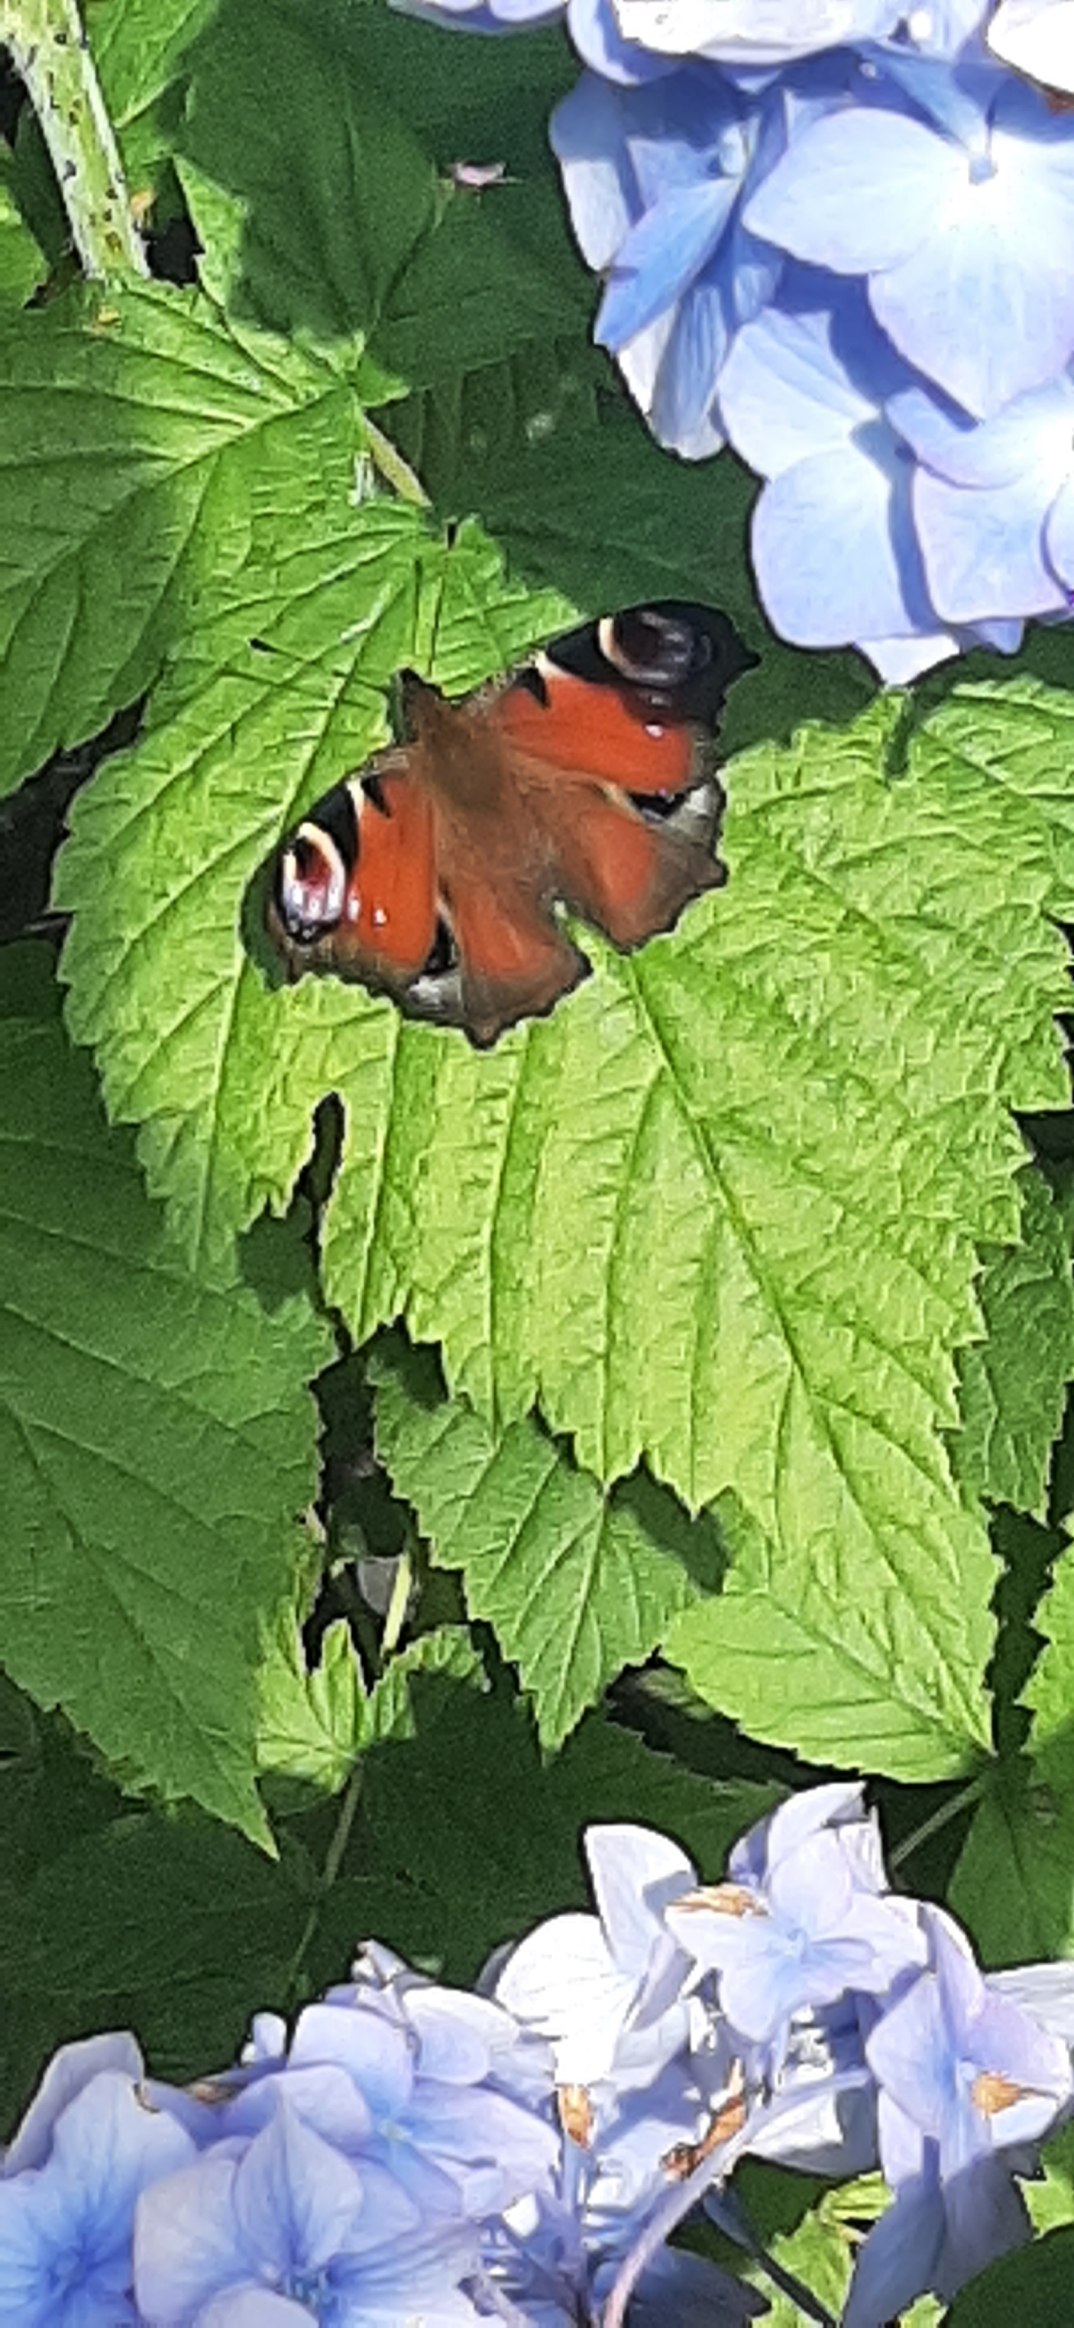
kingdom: Animalia
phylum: Arthropoda
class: Insecta
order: Lepidoptera
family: Nymphalidae
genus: Aglais
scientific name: Aglais io
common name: Dagpåfugleøje
